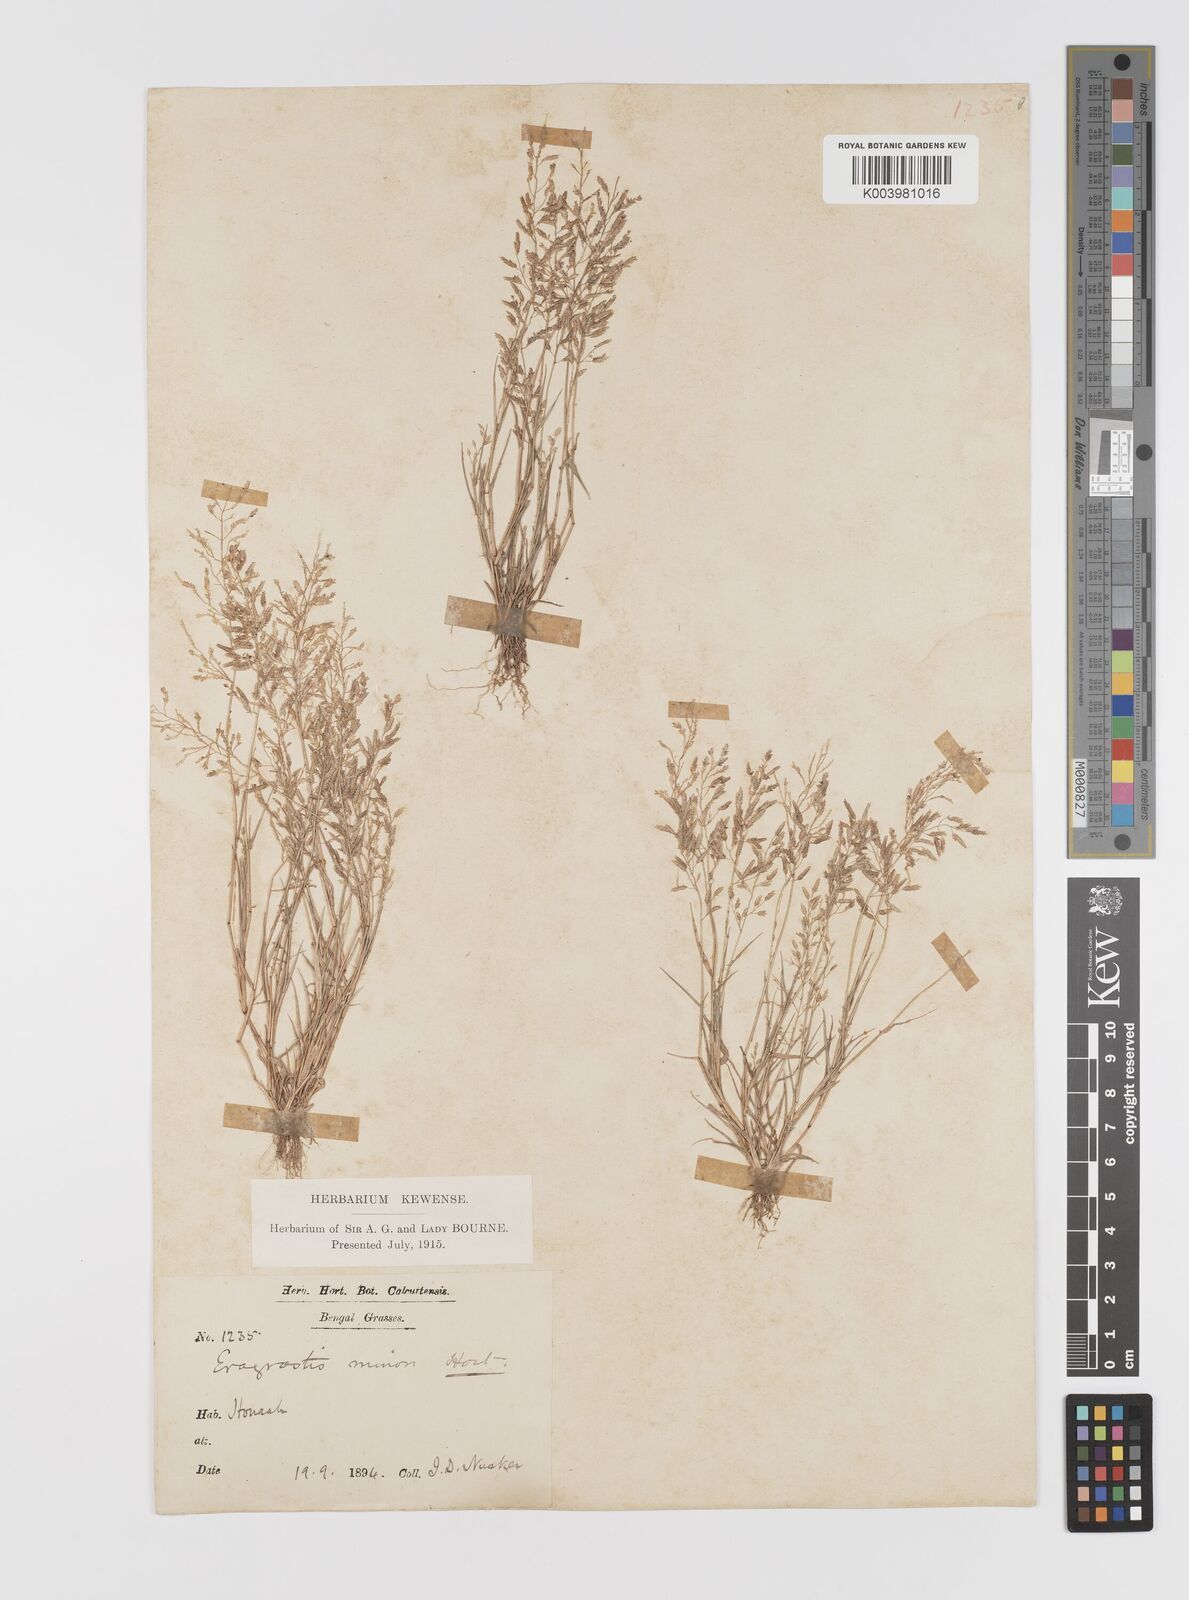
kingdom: Plantae
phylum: Tracheophyta
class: Liliopsida
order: Poales
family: Poaceae
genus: Eragrostis
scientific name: Eragrostis minor
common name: Small love-grass
